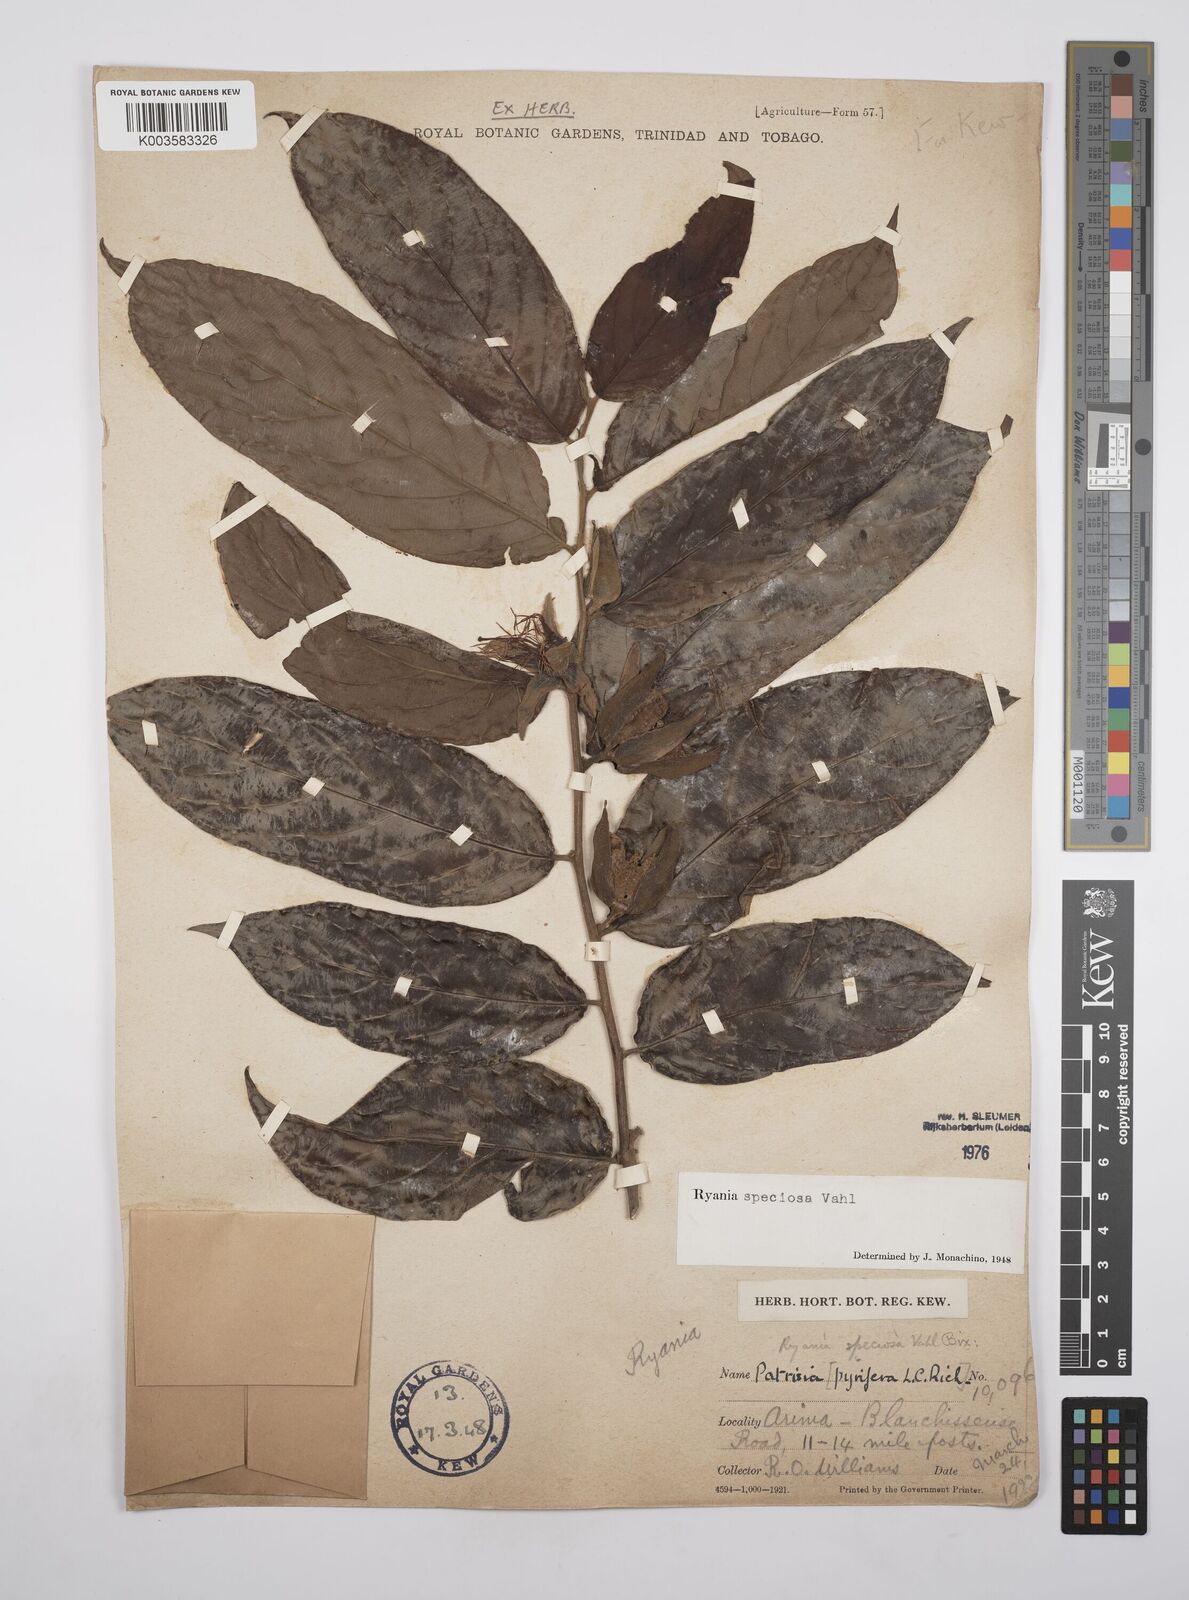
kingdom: Plantae
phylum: Tracheophyta
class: Magnoliopsida
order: Malpighiales
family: Salicaceae
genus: Ryania
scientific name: Ryania speciosa
